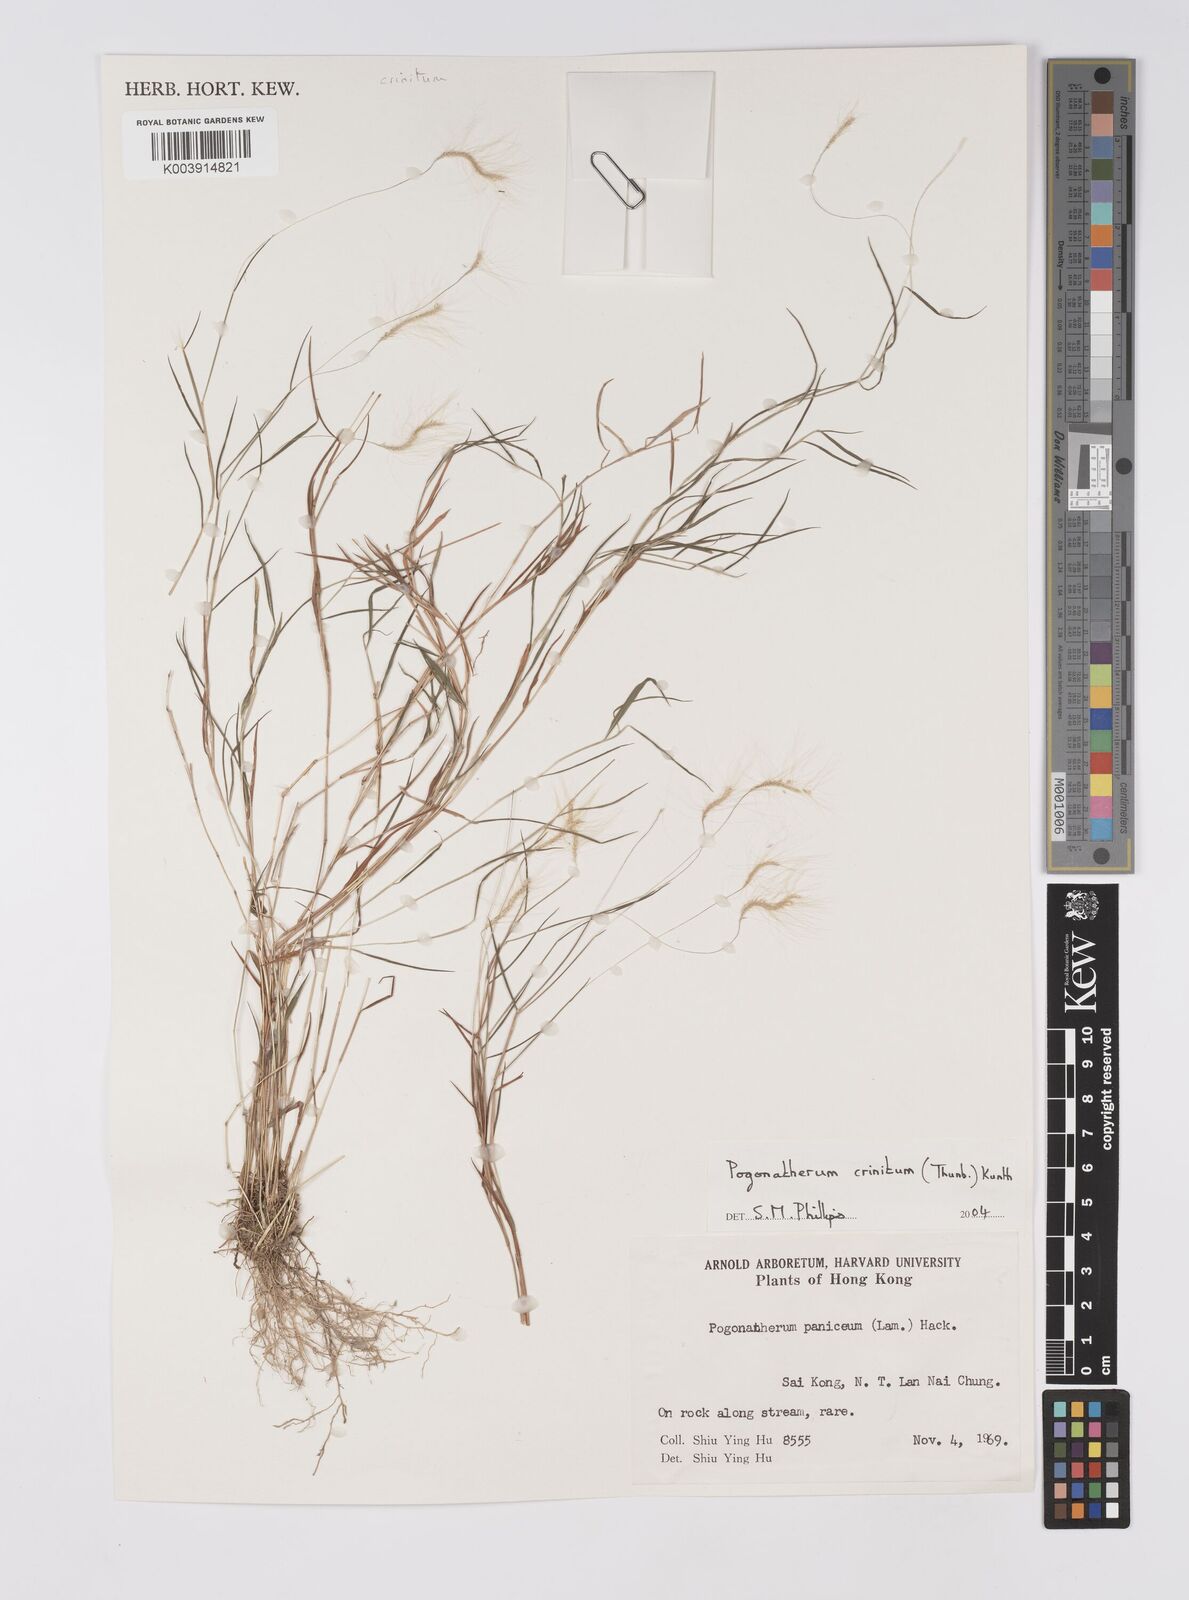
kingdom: Plantae
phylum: Tracheophyta
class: Liliopsida
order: Poales
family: Poaceae
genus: Pogonatherum
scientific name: Pogonatherum crinitum
